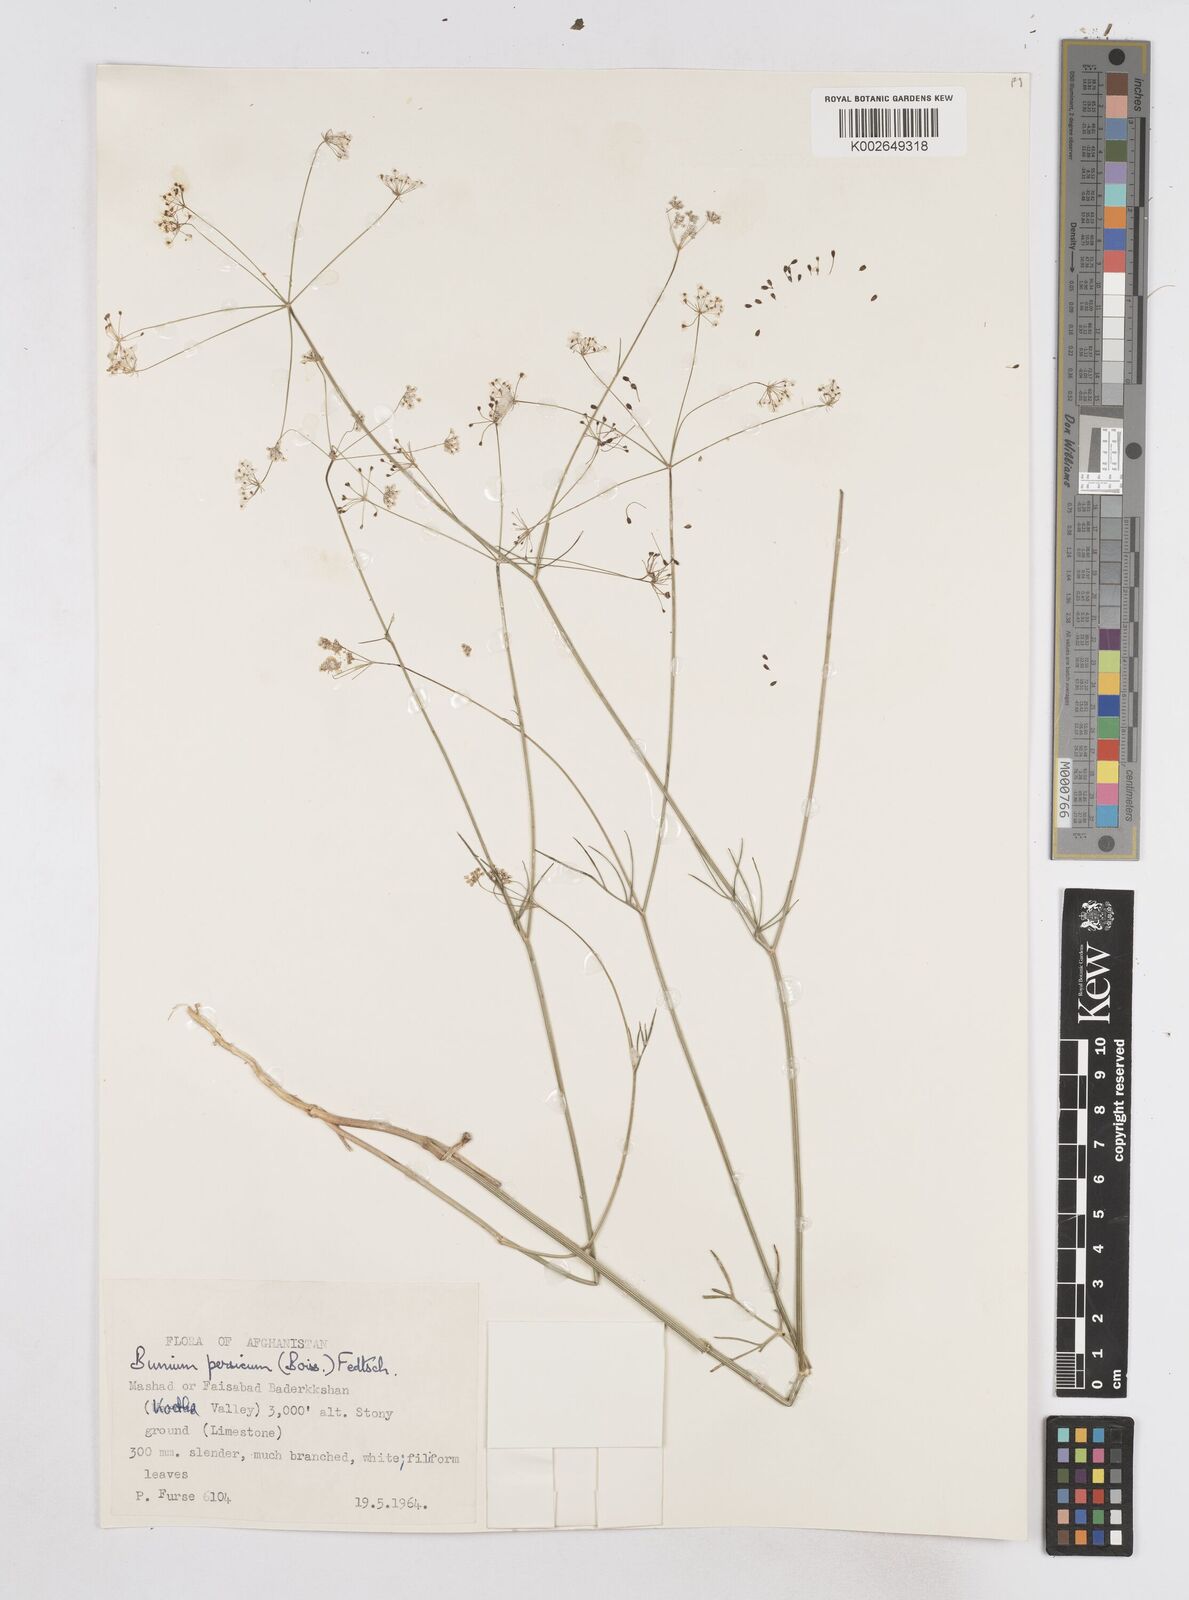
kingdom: Plantae
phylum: Tracheophyta
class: Magnoliopsida
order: Apiales
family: Apiaceae
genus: Elwendia
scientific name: Elwendia persica
